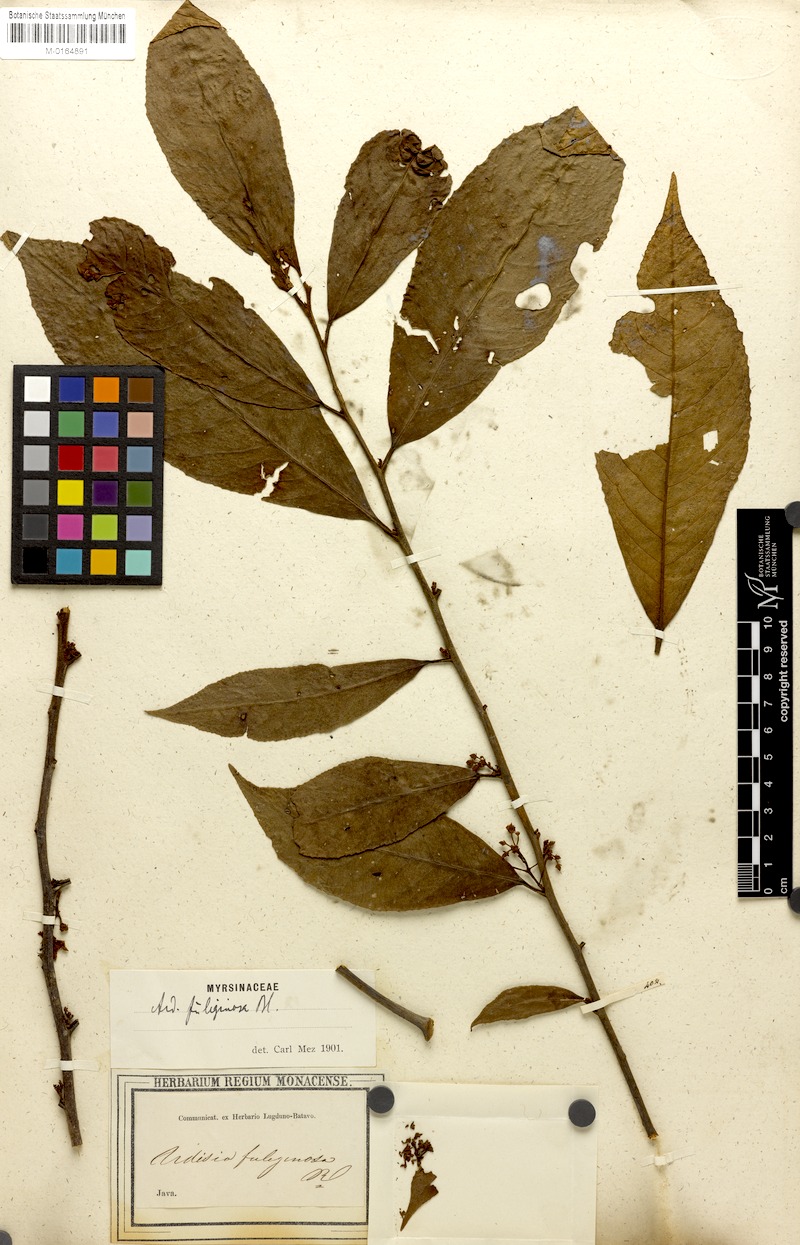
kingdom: Plantae
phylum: Tracheophyta
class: Magnoliopsida
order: Ericales
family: Primulaceae
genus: Ardisia
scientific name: Ardisia fuliginosa
